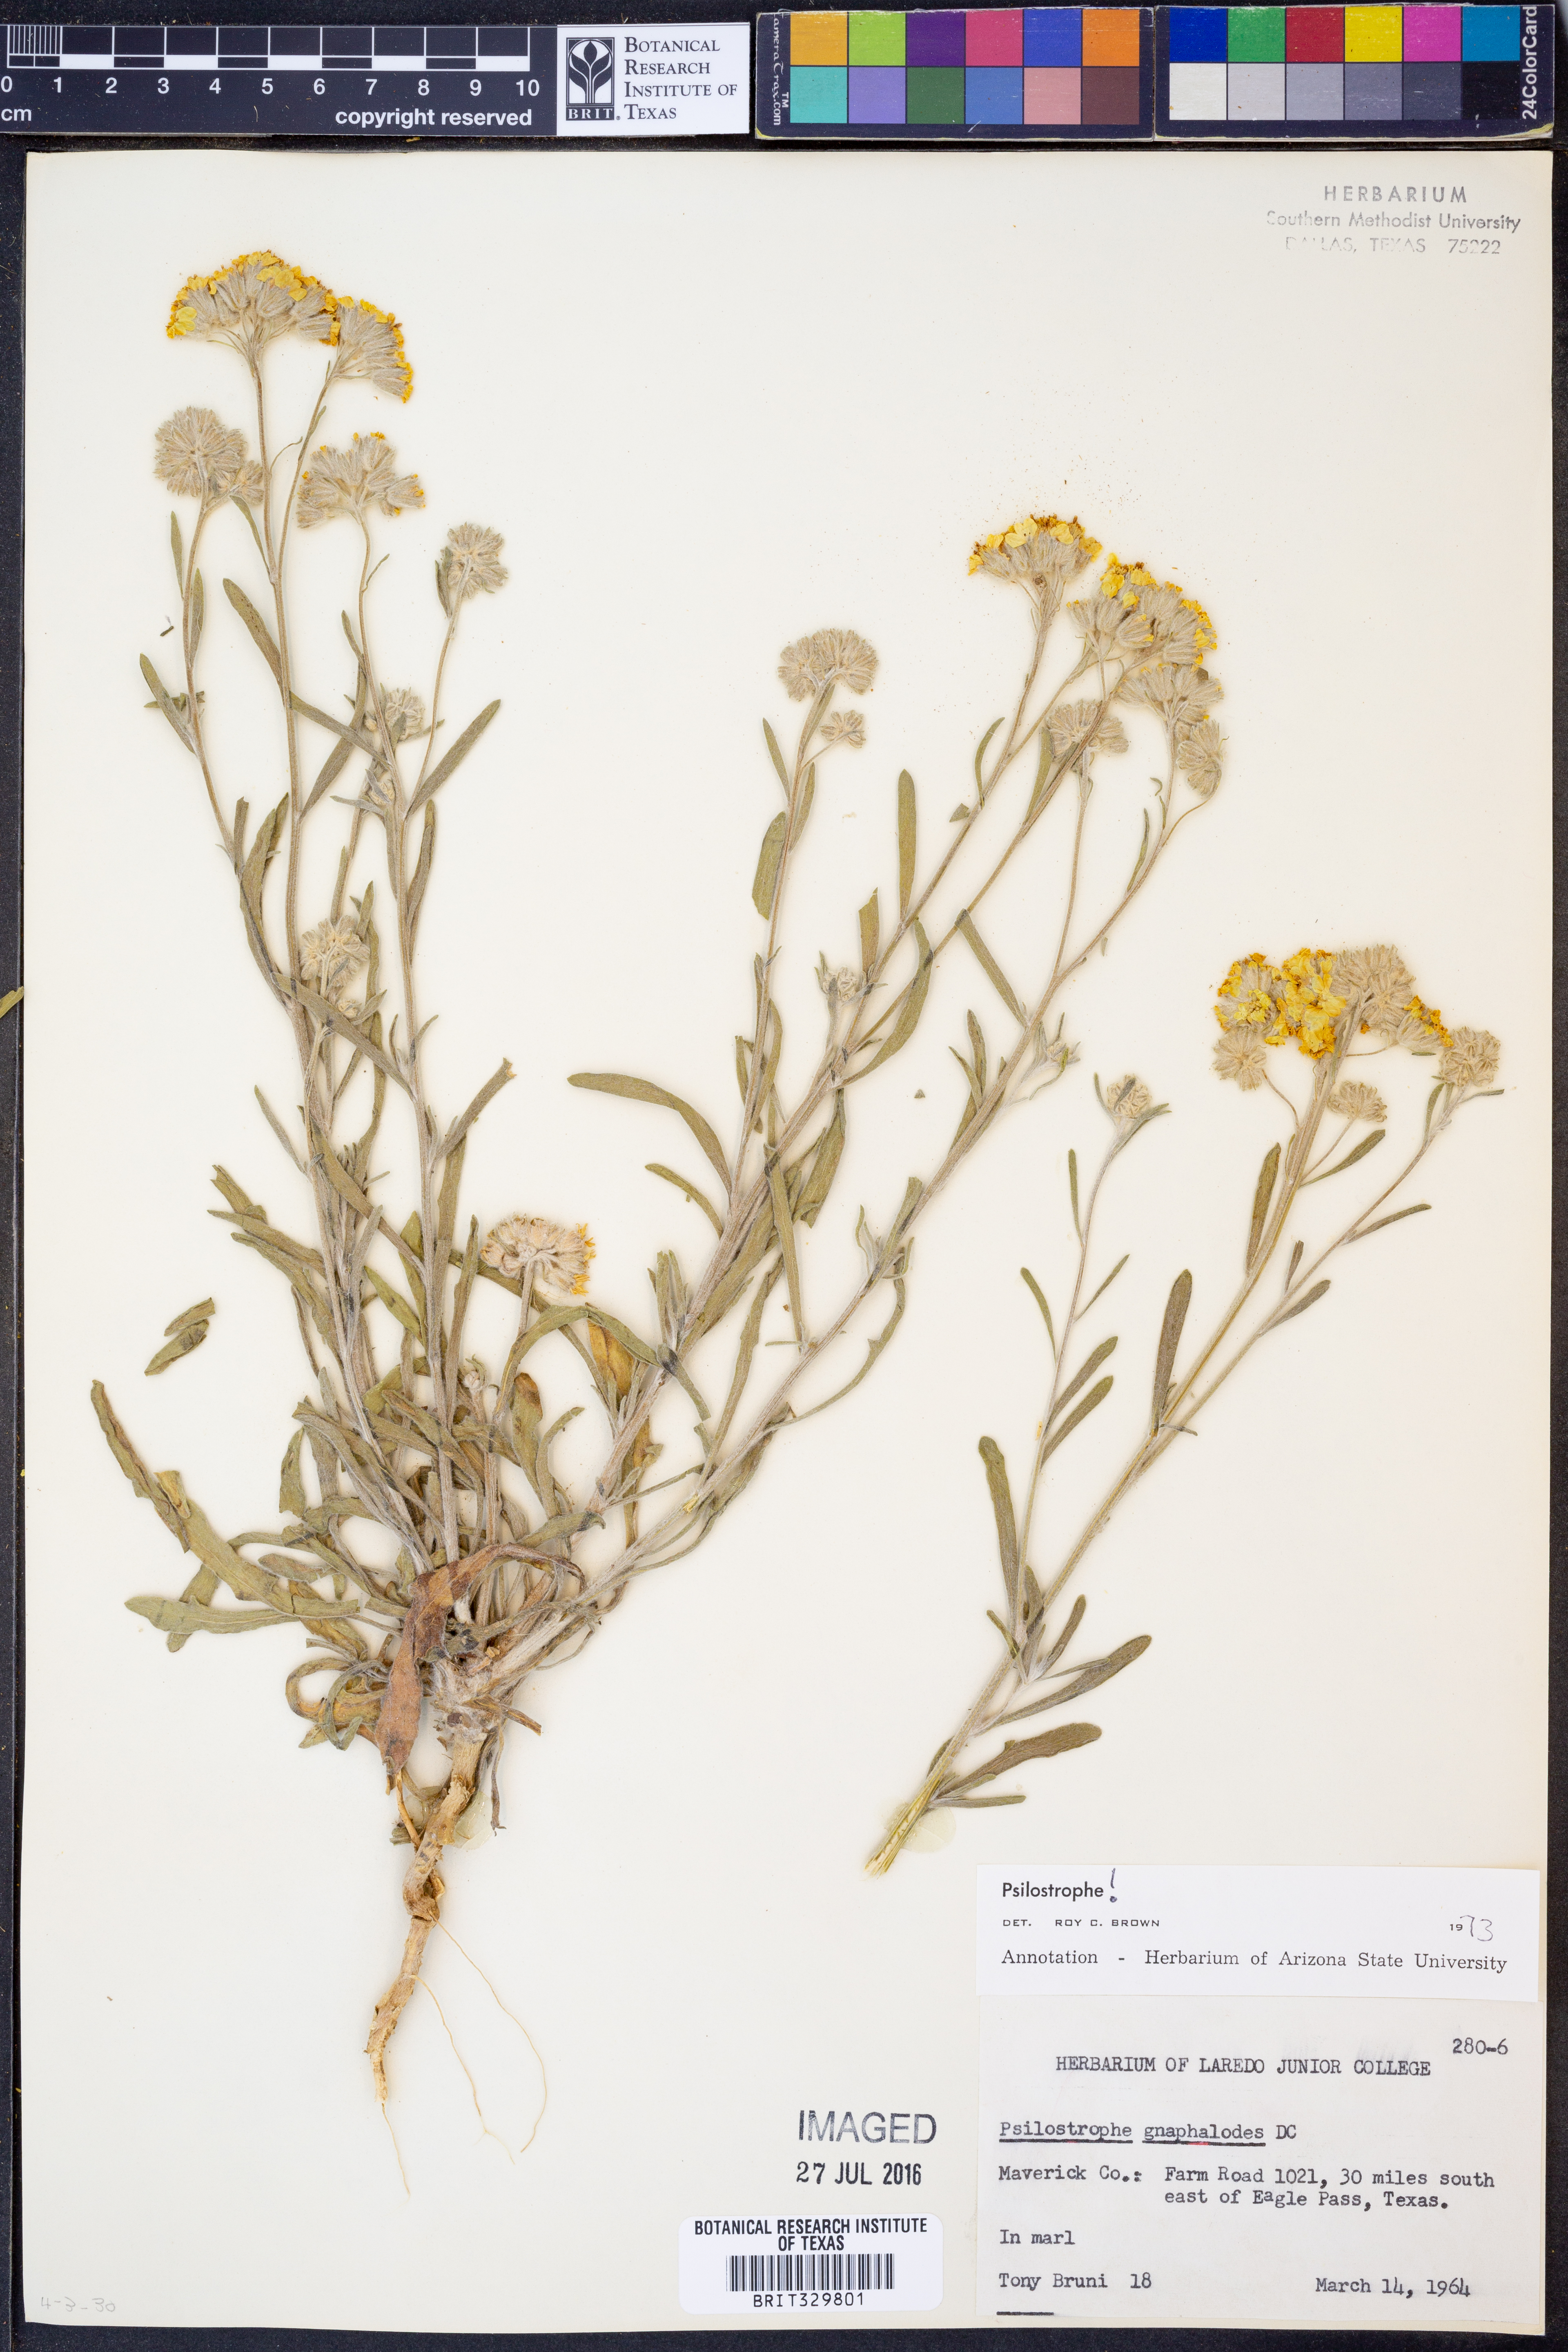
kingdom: Plantae
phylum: Tracheophyta
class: Magnoliopsida
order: Asterales
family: Asteraceae
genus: Psilostrophe
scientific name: Psilostrophe gnaphalioides
